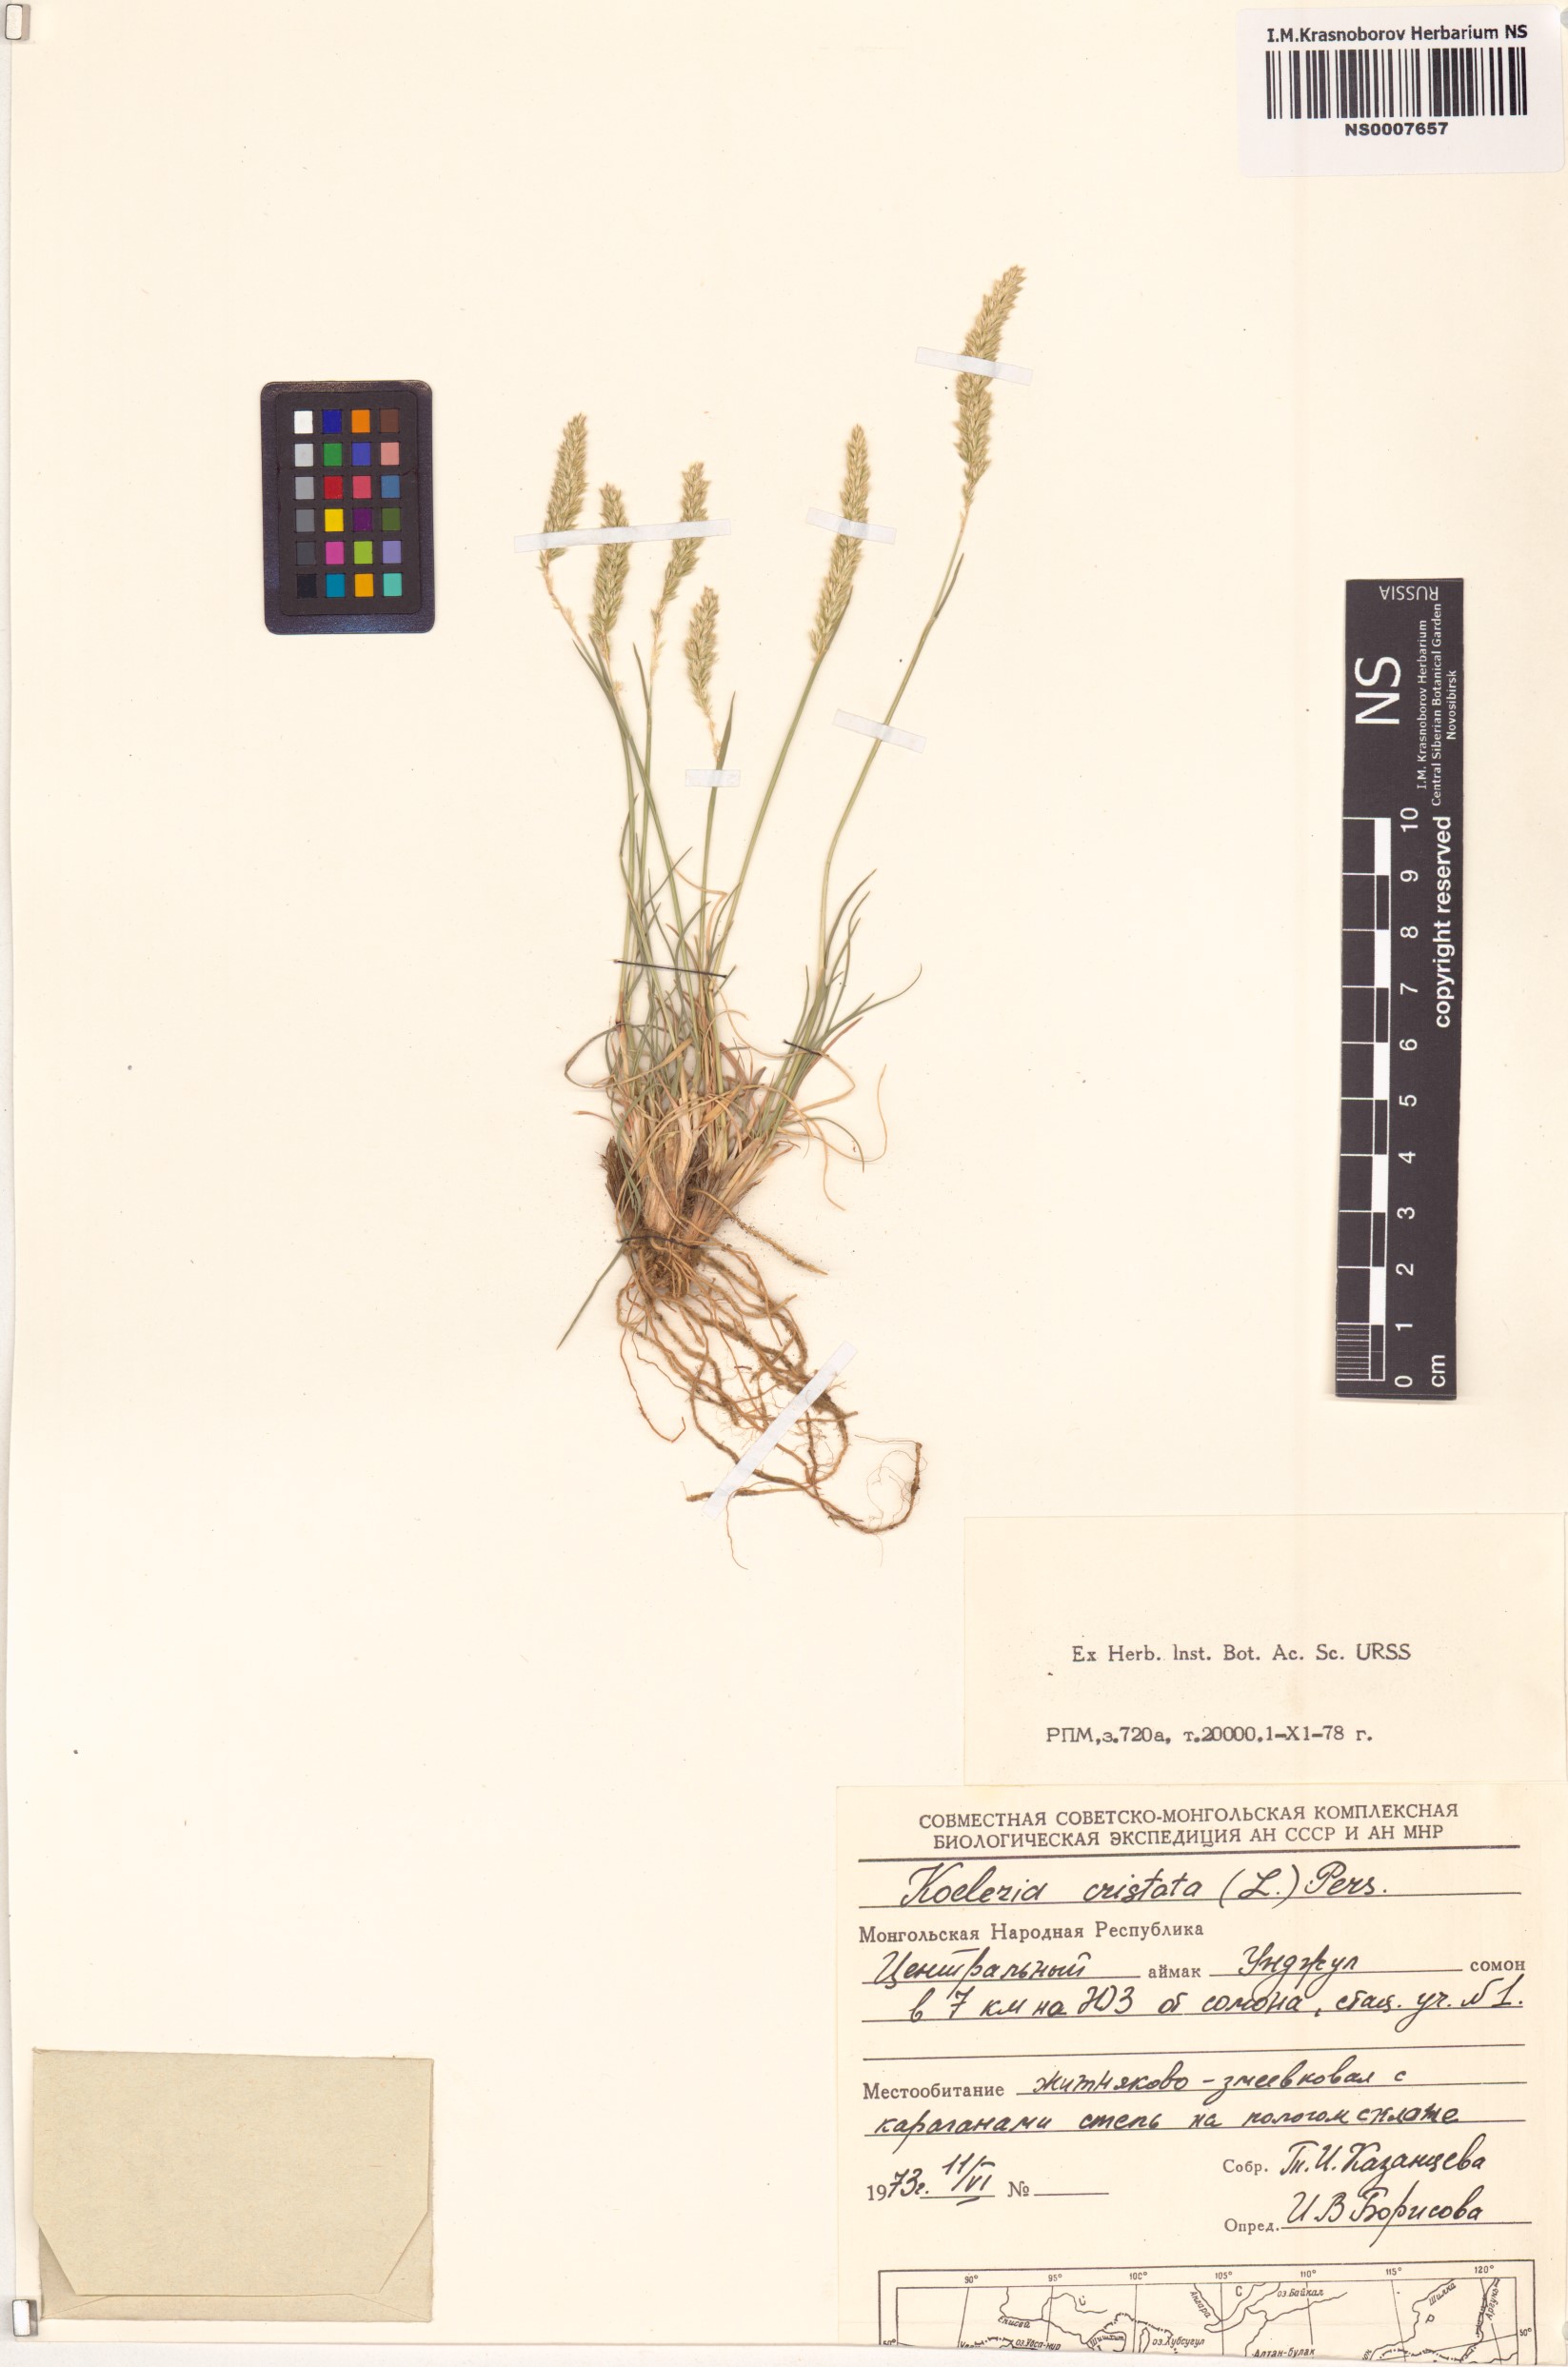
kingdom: Plantae
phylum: Tracheophyta
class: Liliopsida
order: Poales
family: Poaceae
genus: Rostraria
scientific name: Rostraria cristata
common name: Mediterranean hair-grass
